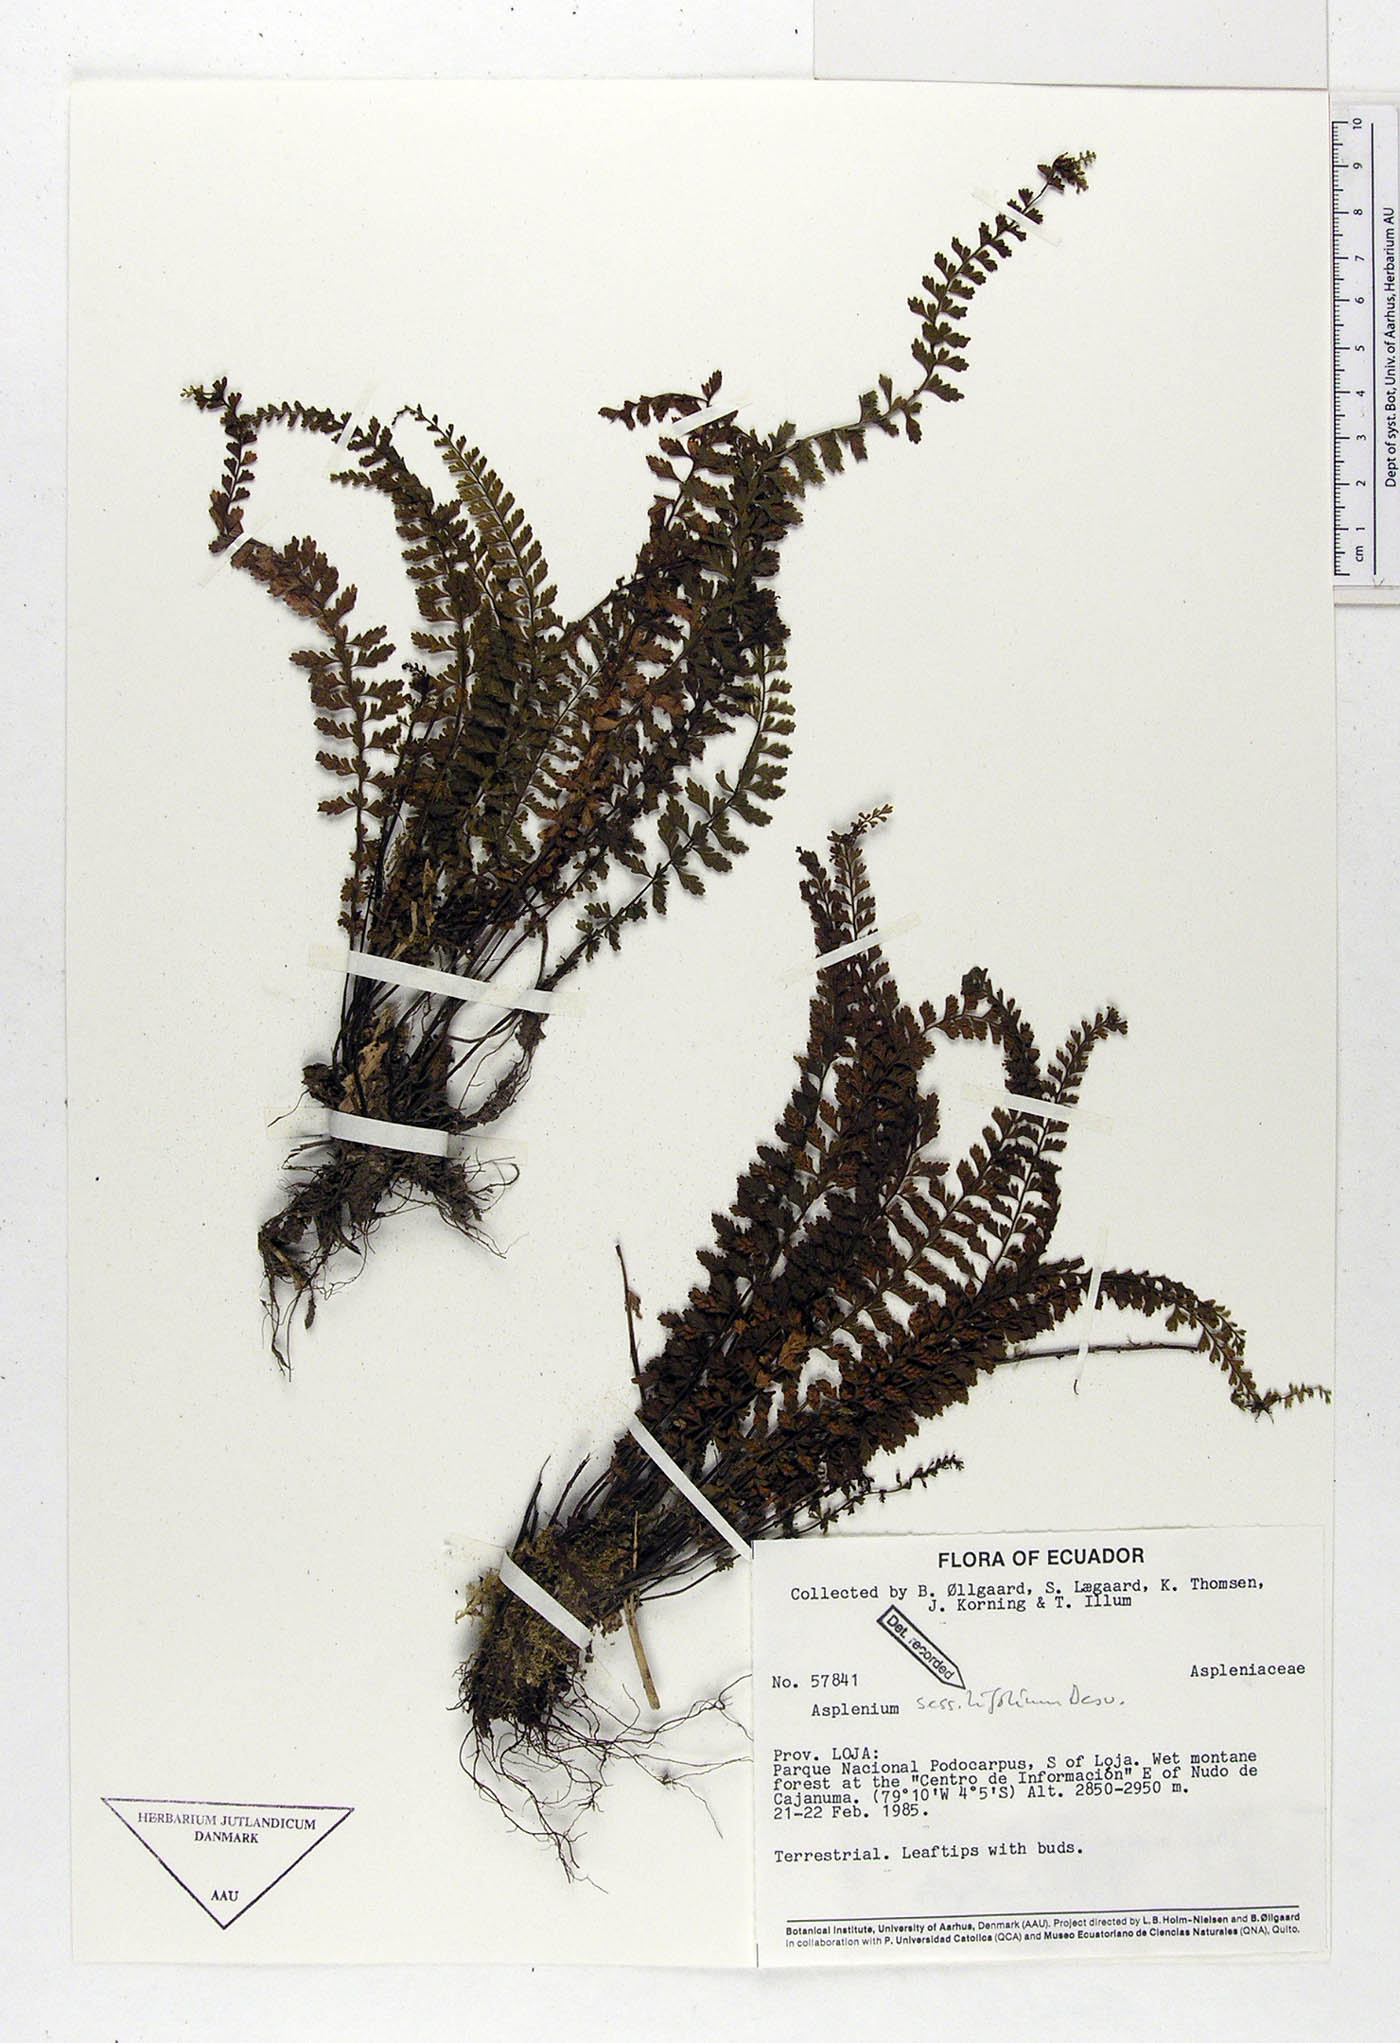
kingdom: Plantae
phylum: Tracheophyta
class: Polypodiopsida
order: Polypodiales
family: Aspleniaceae
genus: Asplenium
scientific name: Asplenium sessilifolium
